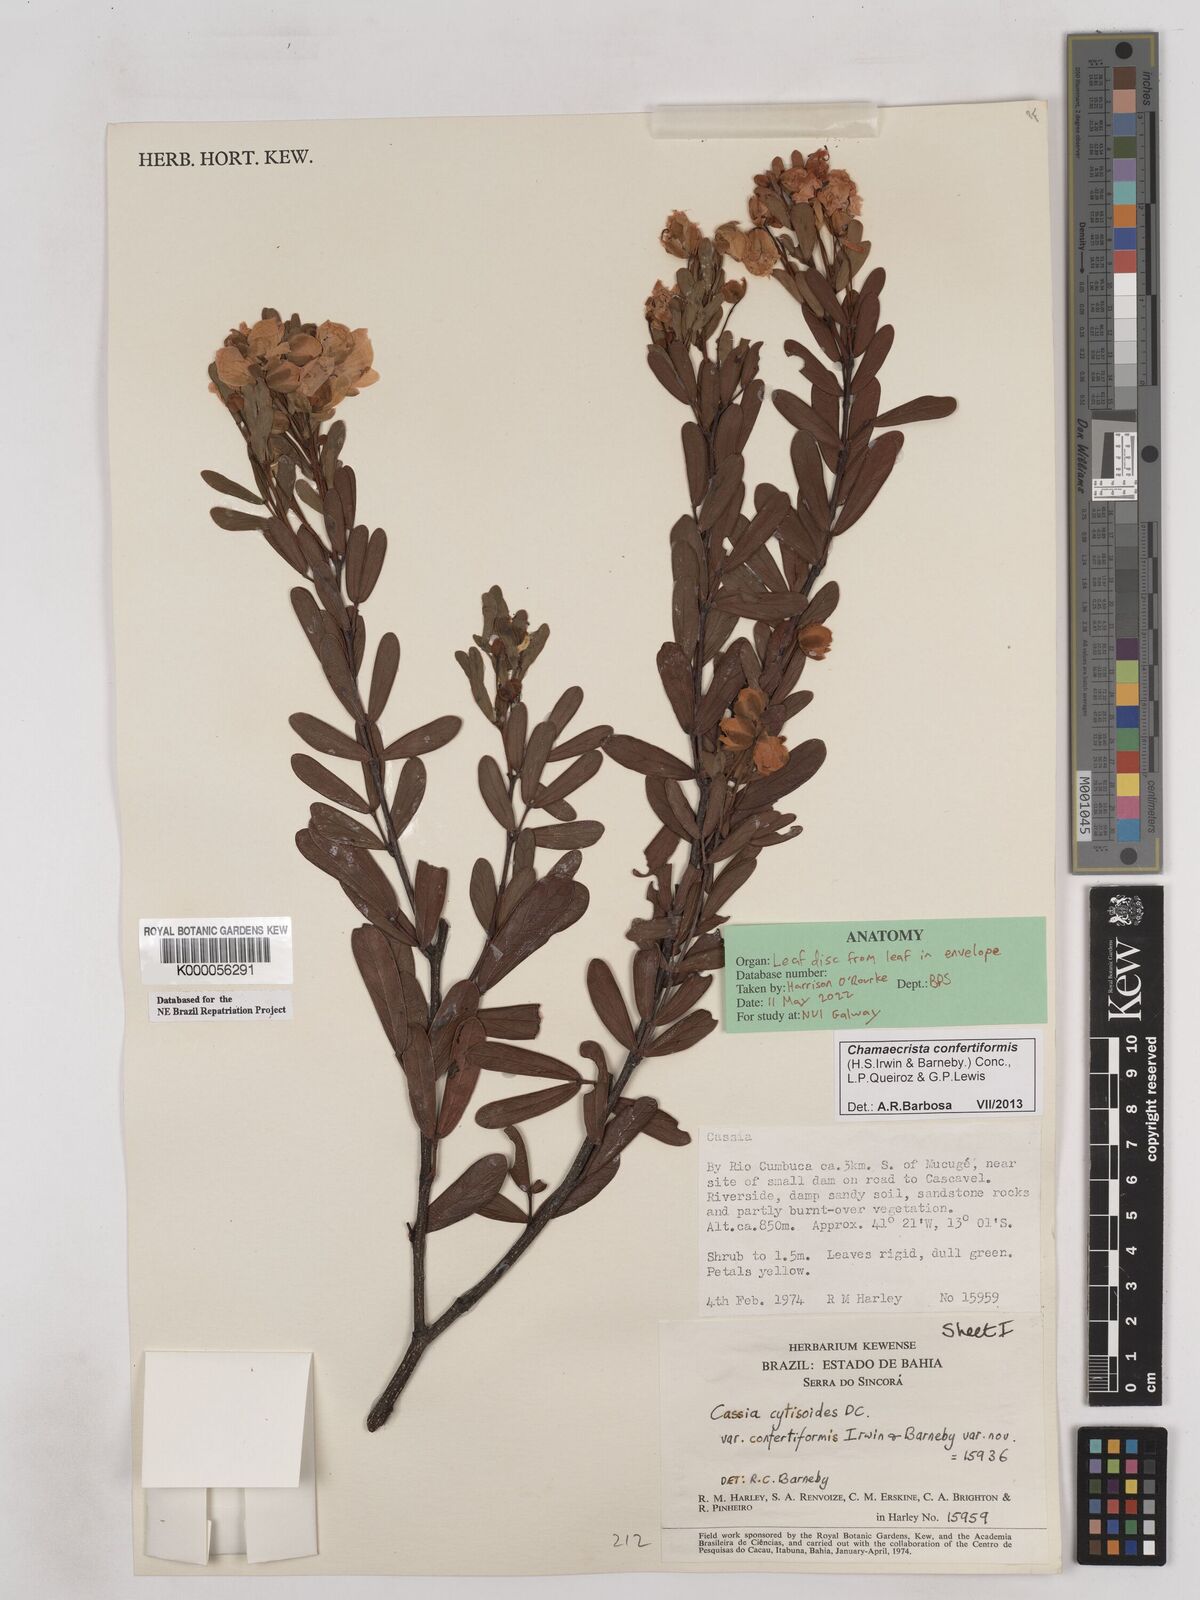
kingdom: Plantae
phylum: Tracheophyta
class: Magnoliopsida
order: Fabales
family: Fabaceae
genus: Chamaecrista
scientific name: Chamaecrista confertiformis
